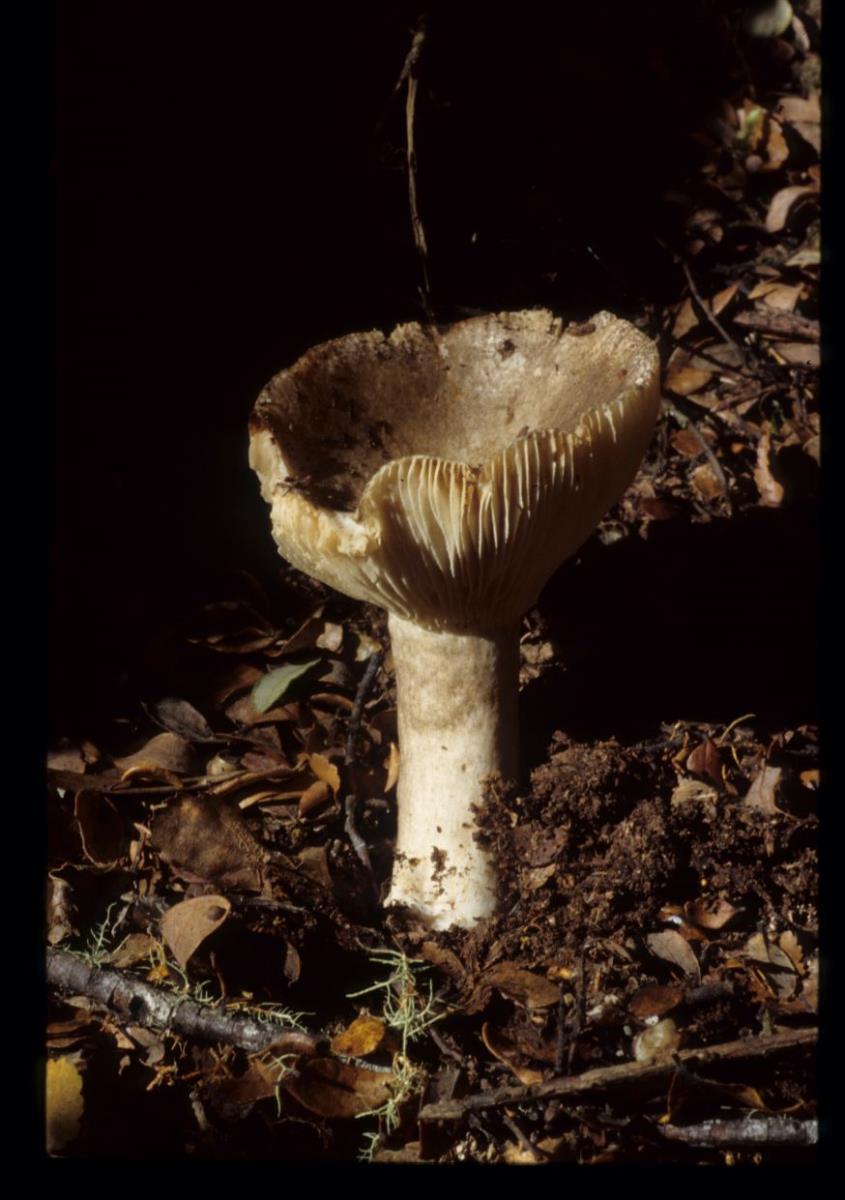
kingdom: Fungi
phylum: Basidiomycota
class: Agaricomycetes
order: Russulales
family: Russulaceae
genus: Russula
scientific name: Russula
